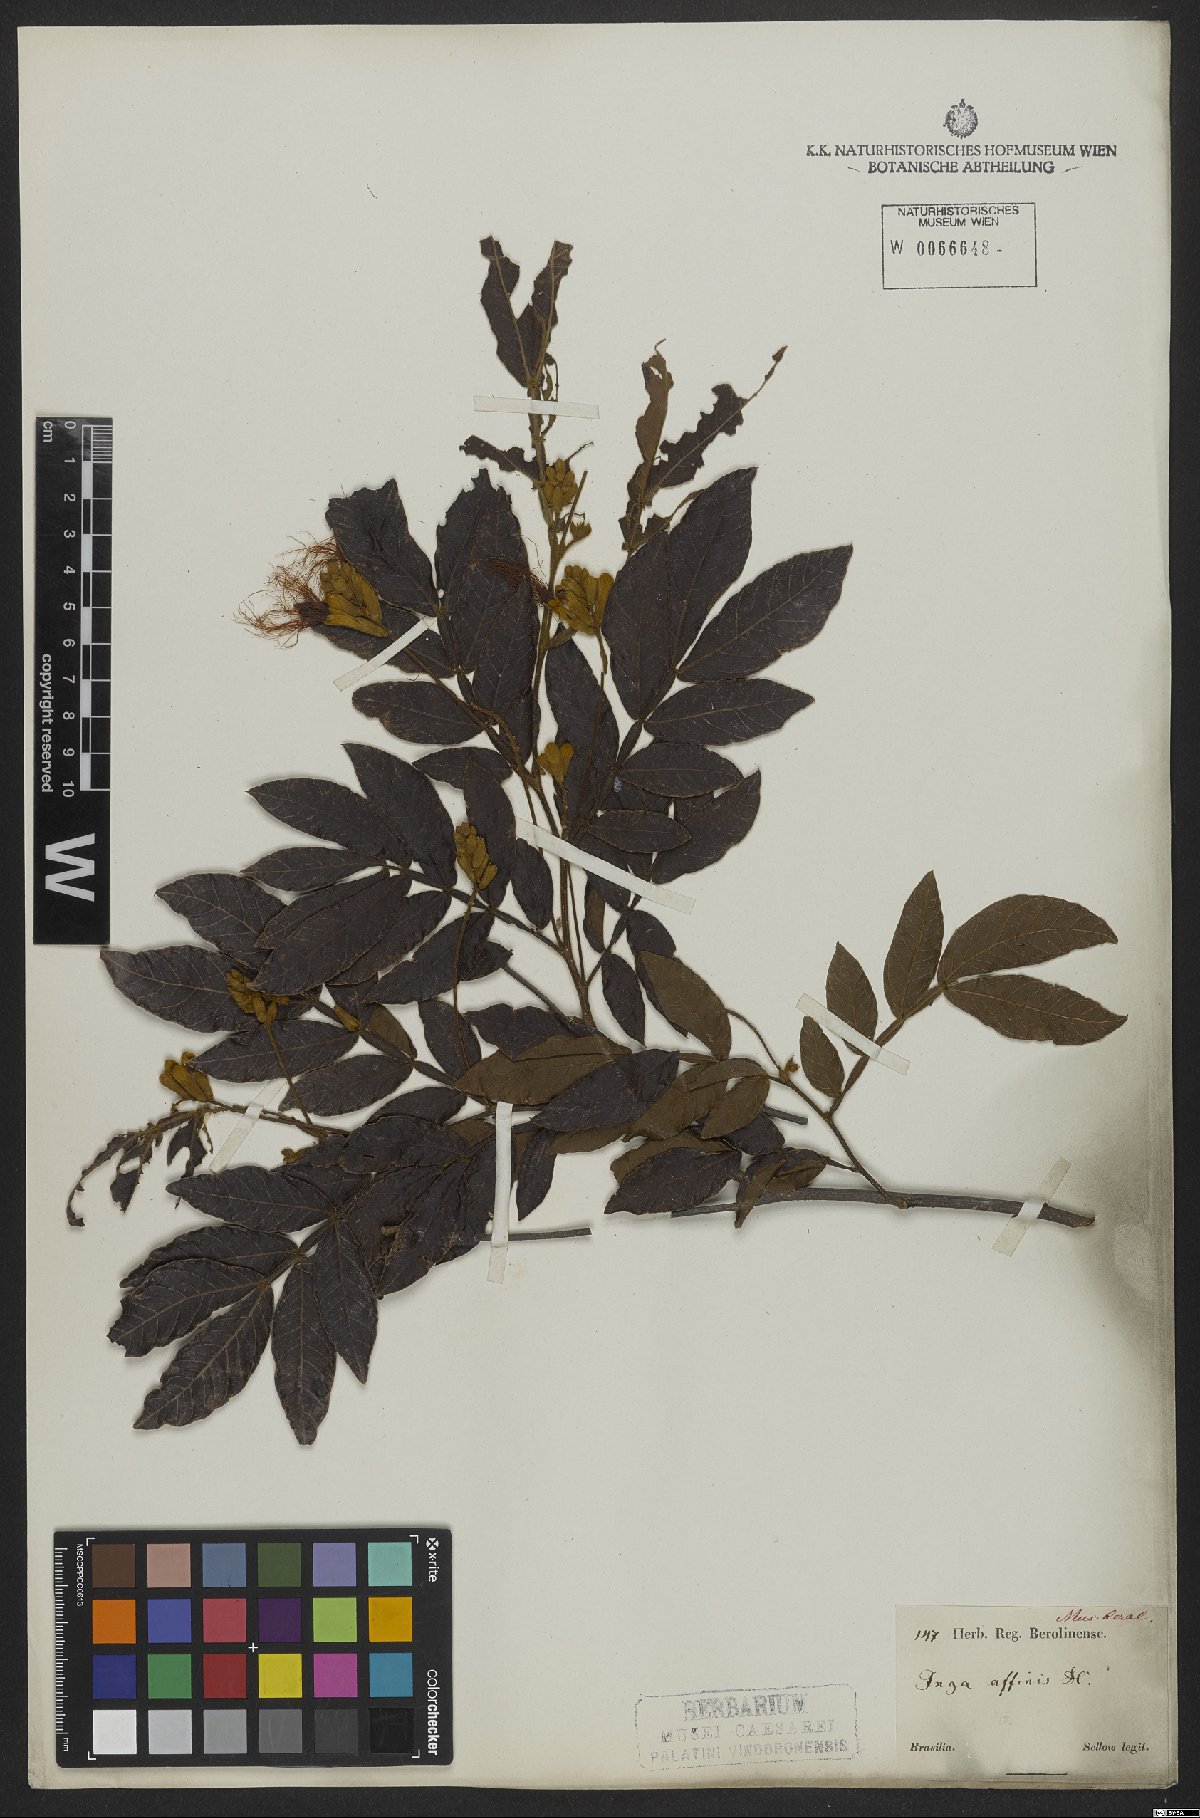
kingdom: Plantae
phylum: Tracheophyta
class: Magnoliopsida
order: Fabales
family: Fabaceae
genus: Inga
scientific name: Inga pilosula
